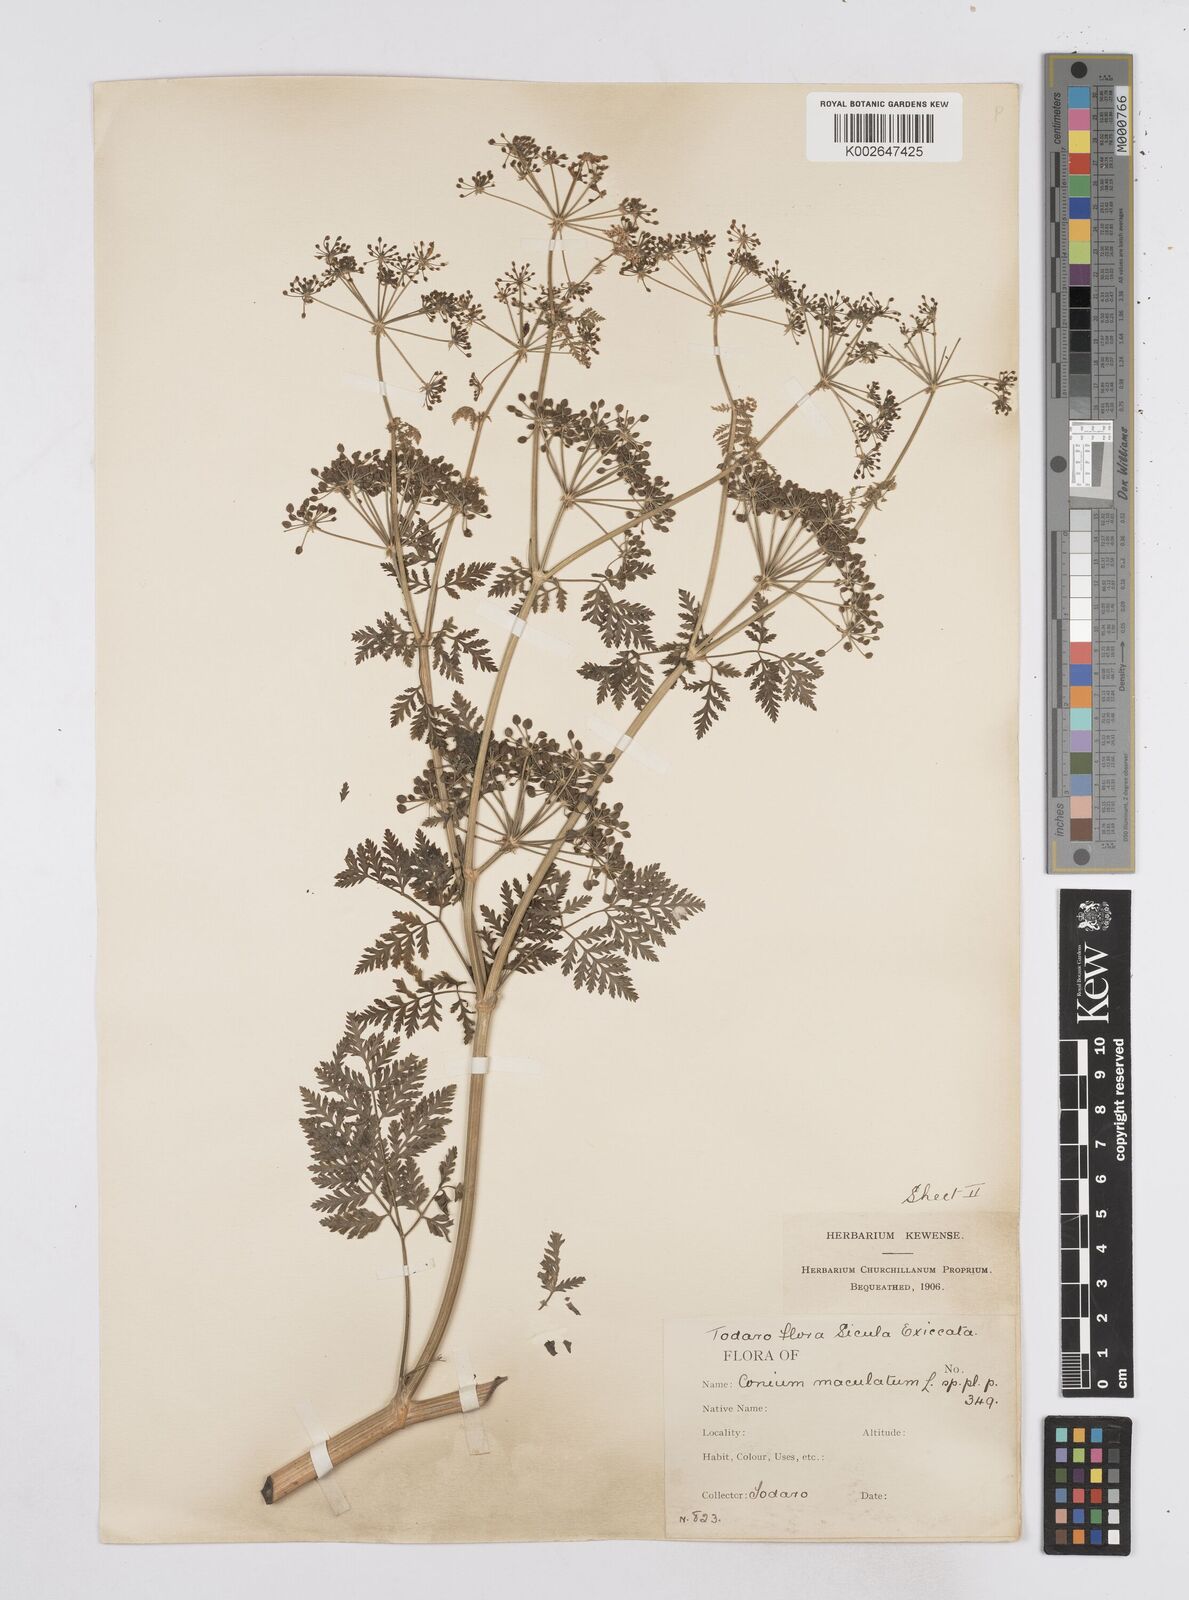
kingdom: Plantae
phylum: Tracheophyta
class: Magnoliopsida
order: Apiales
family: Apiaceae
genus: Conium
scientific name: Conium maculatum
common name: Hemlock
